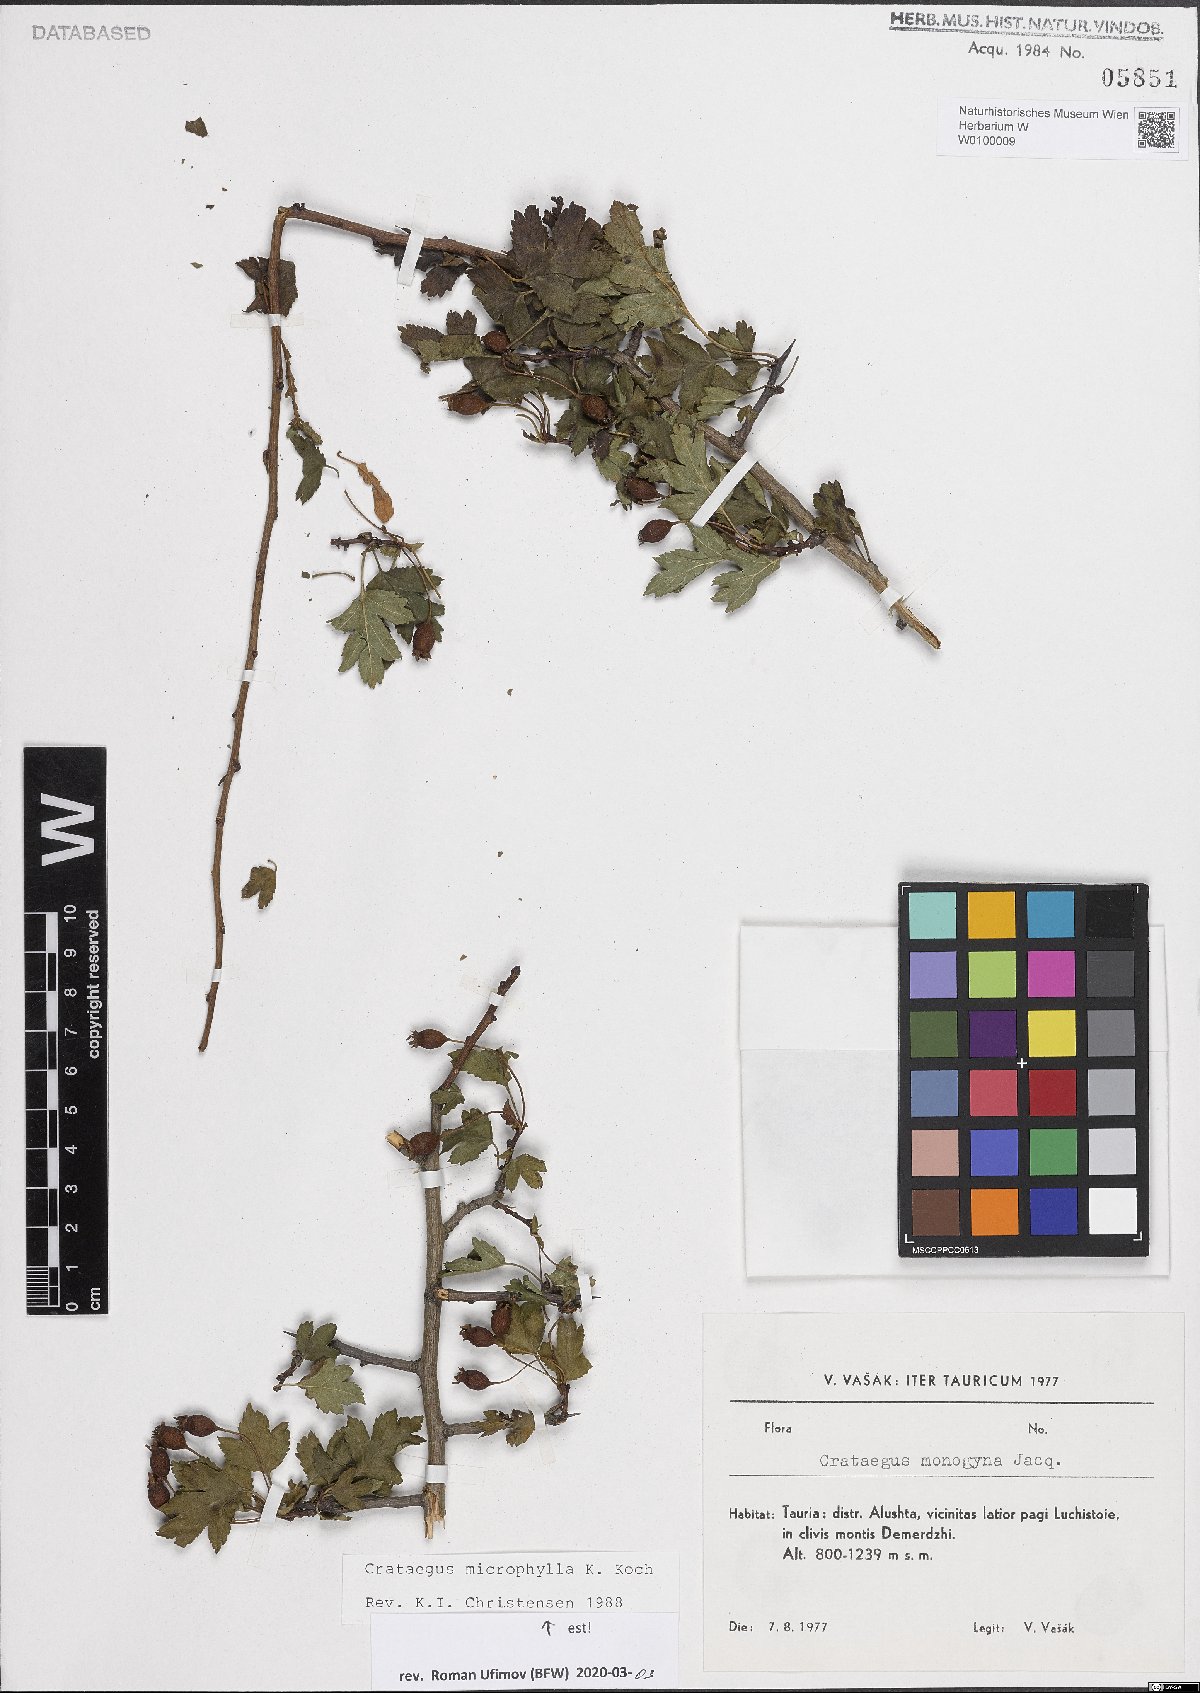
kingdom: Plantae
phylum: Tracheophyta
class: Magnoliopsida
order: Rosales
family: Rosaceae
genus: Crataegus
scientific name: Crataegus microphylla
